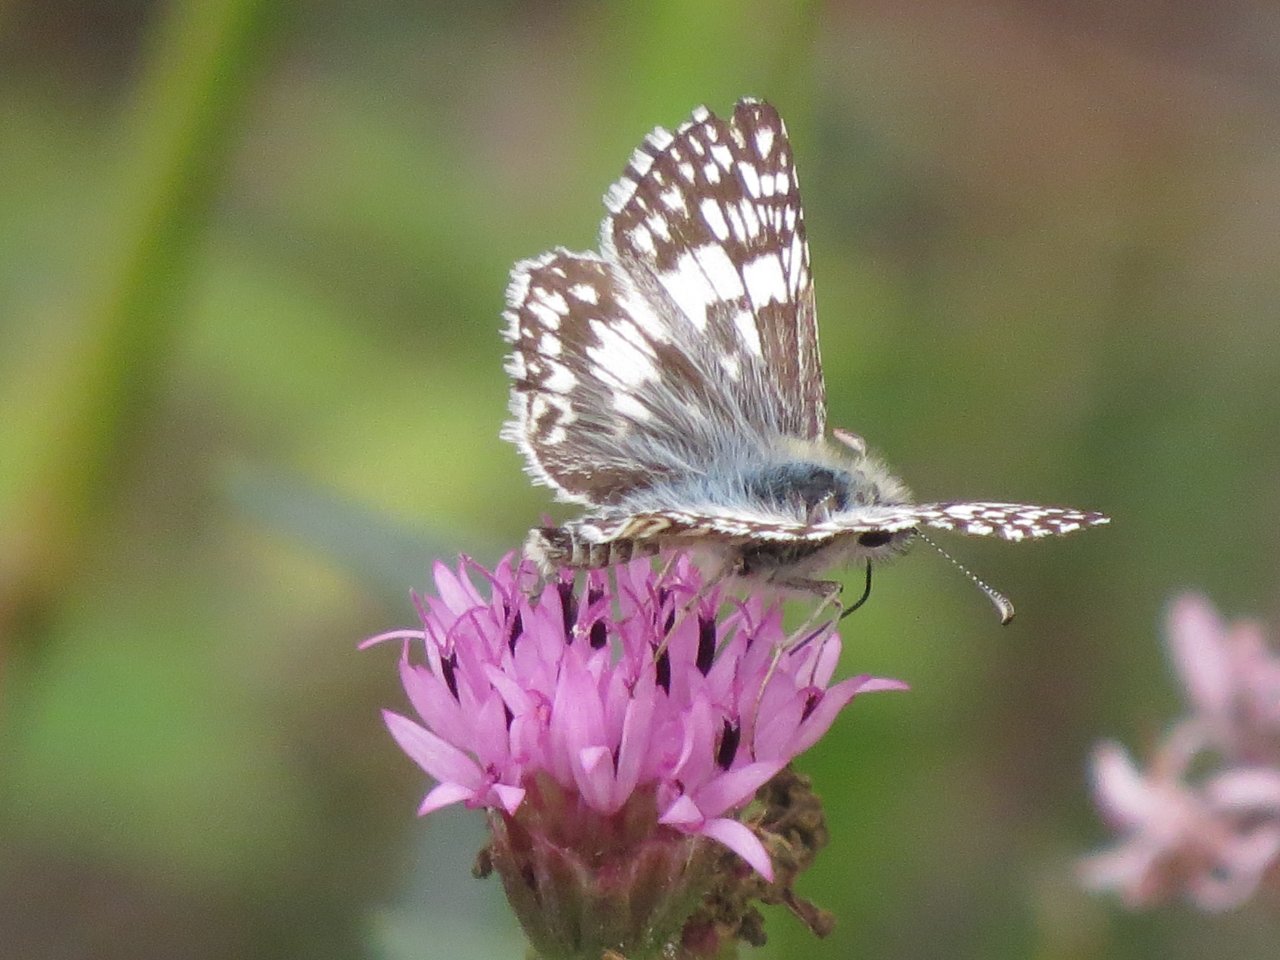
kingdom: Animalia
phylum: Arthropoda
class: Insecta
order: Lepidoptera
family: Hesperiidae
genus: Pyrgus
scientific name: Pyrgus communis
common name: Common Checkered-Skipper
